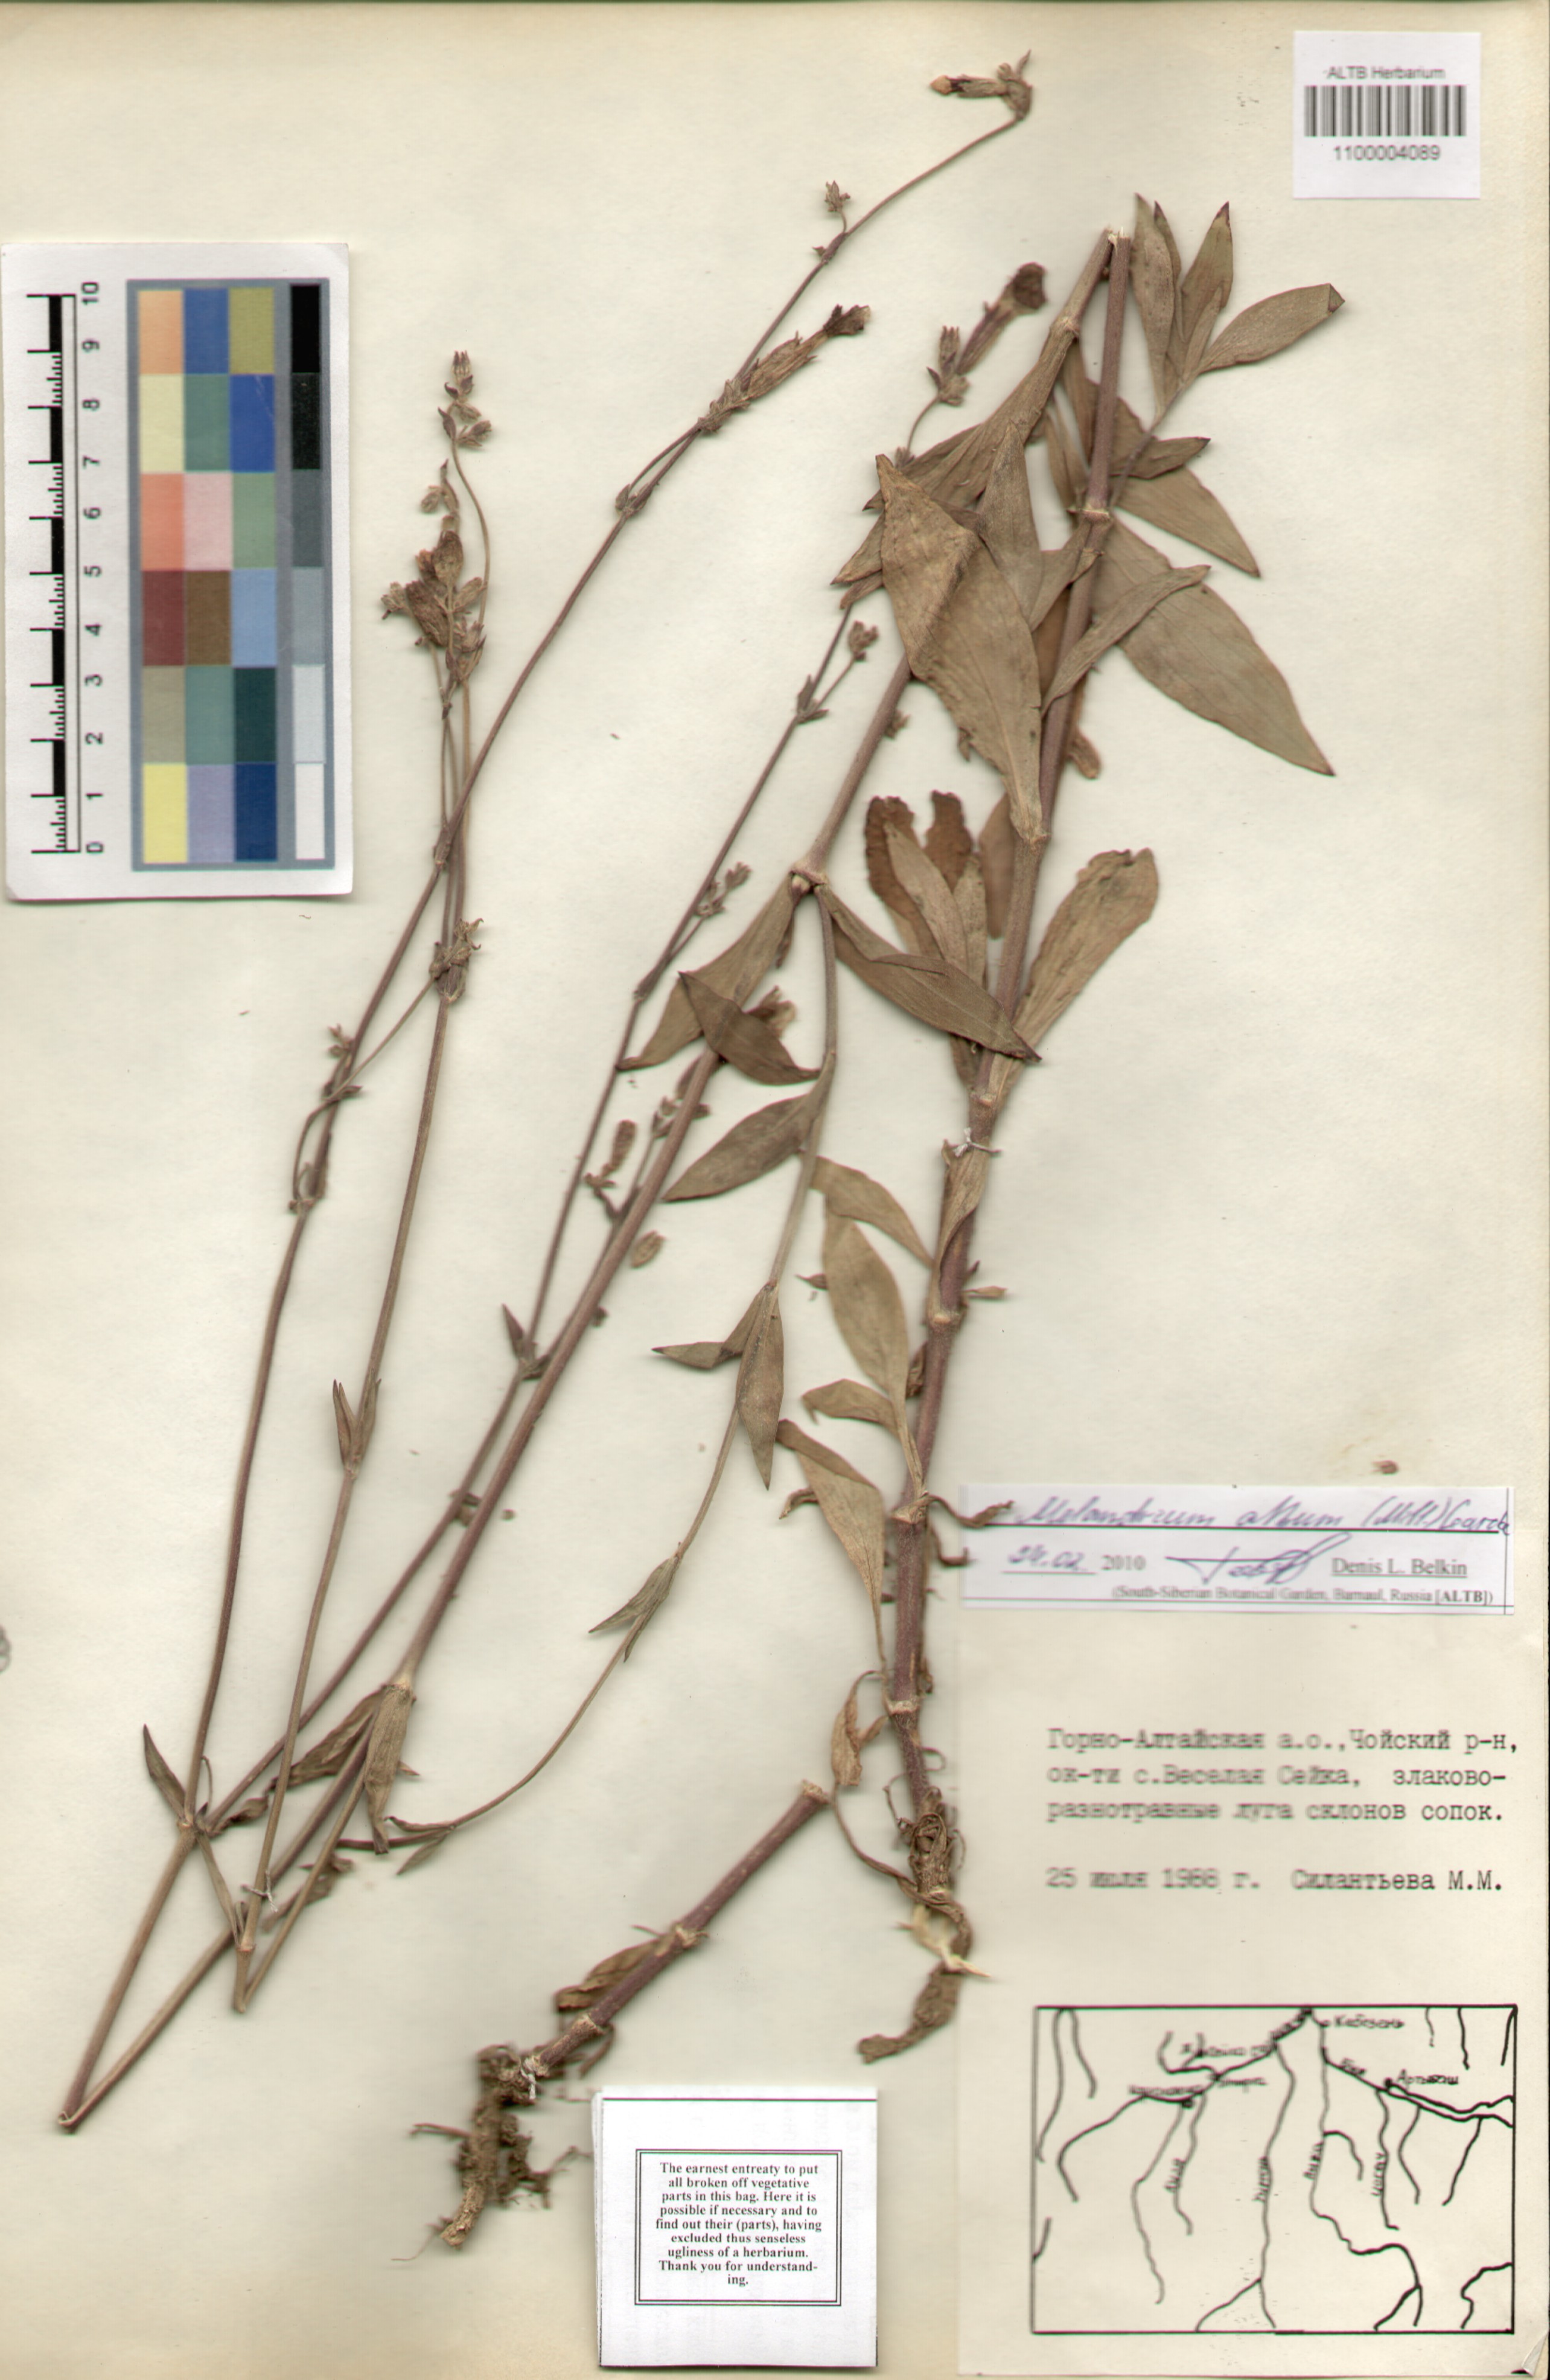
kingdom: Plantae
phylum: Tracheophyta
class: Magnoliopsida
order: Caryophyllales
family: Caryophyllaceae
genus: Silene
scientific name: Silene latifolia
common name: White campion
